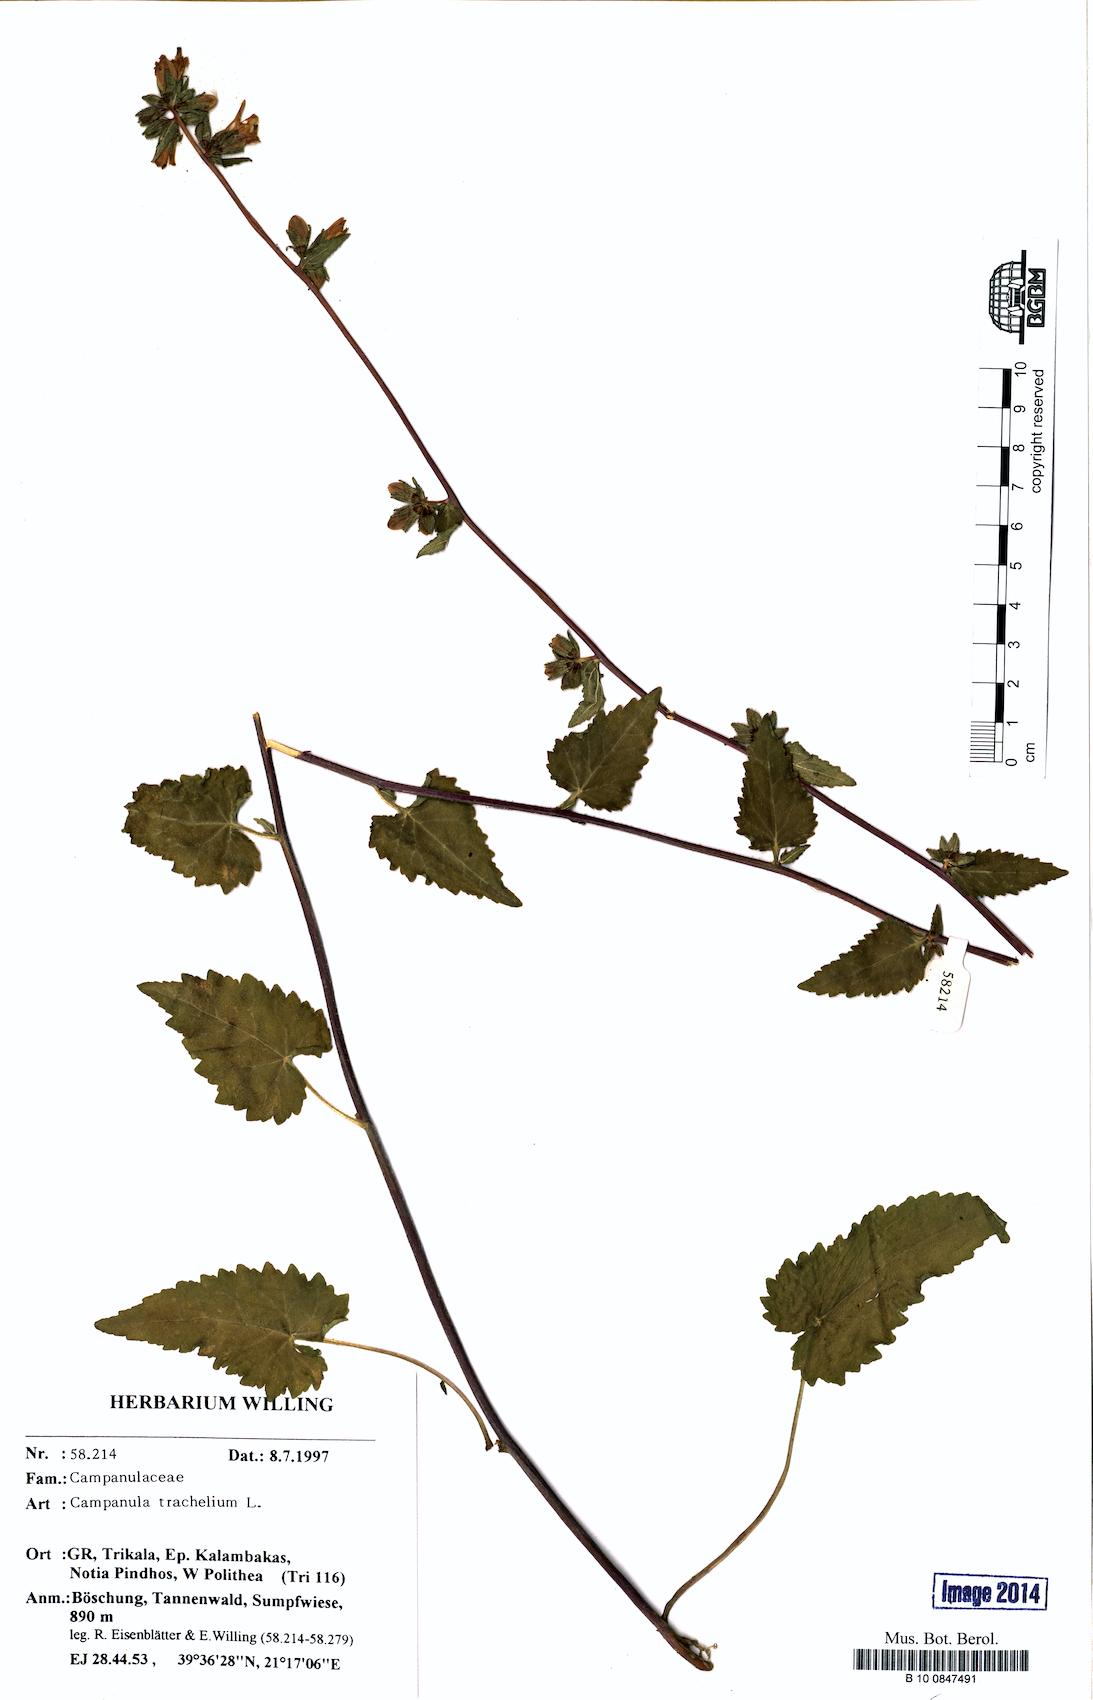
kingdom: Plantae
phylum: Tracheophyta
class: Magnoliopsida
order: Asterales
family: Campanulaceae
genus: Campanula
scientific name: Campanula trachelium
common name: Nettle-leaved bellflower
